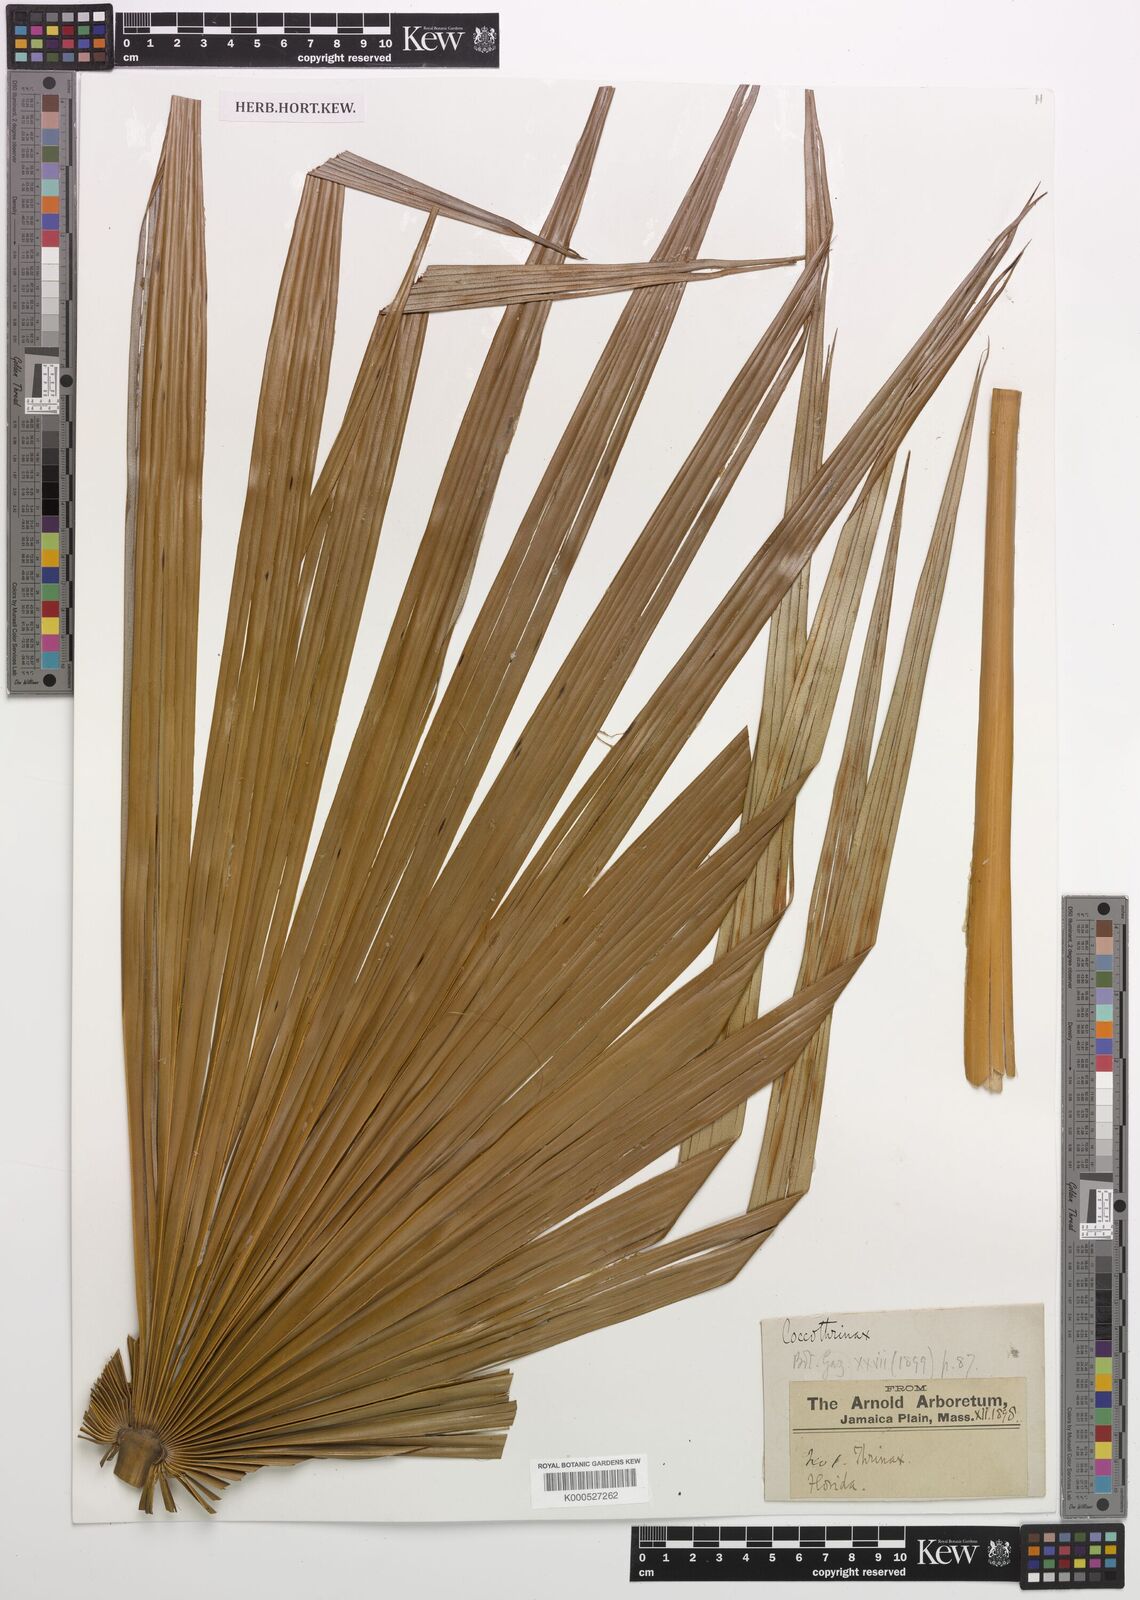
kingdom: Plantae
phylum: Tracheophyta
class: Liliopsida
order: Arecales
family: Arecaceae
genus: Coccothrinax
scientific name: Coccothrinax
